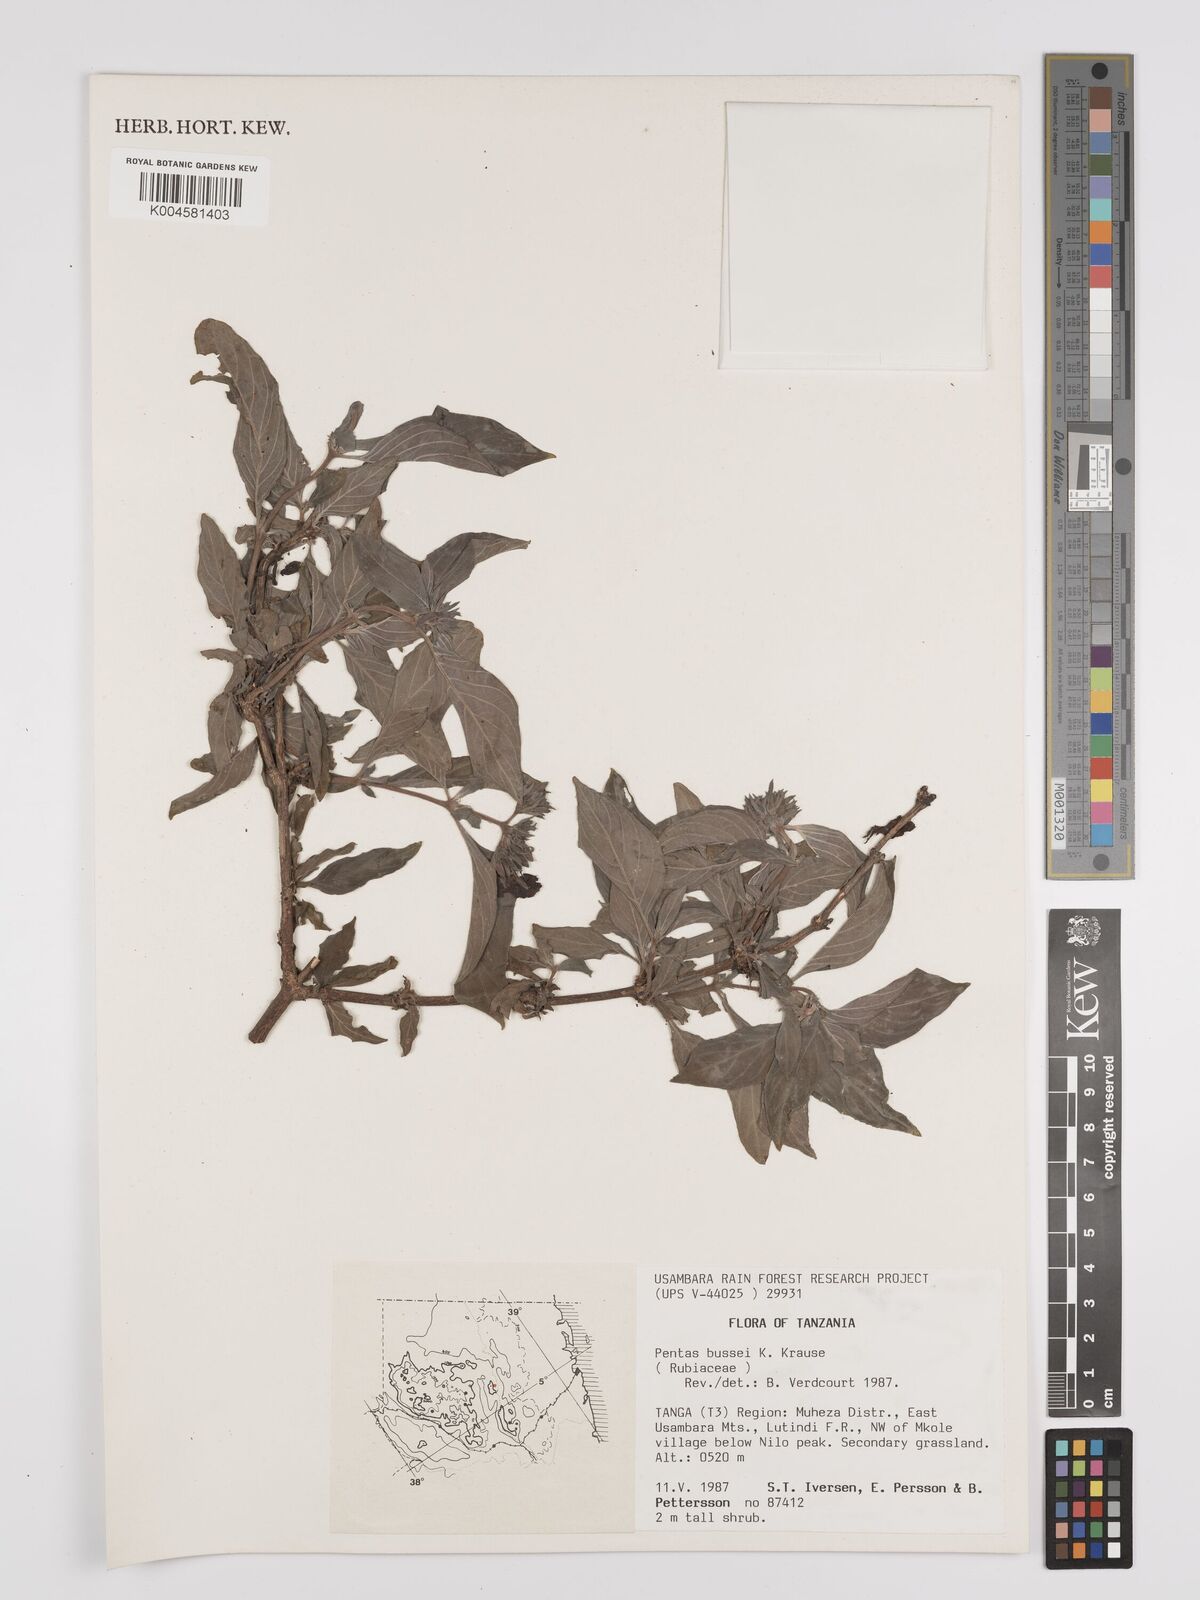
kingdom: Plantae
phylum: Tracheophyta
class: Magnoliopsida
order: Gentianales
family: Rubiaceae
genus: Rhodopentas
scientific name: Rhodopentas bussei
